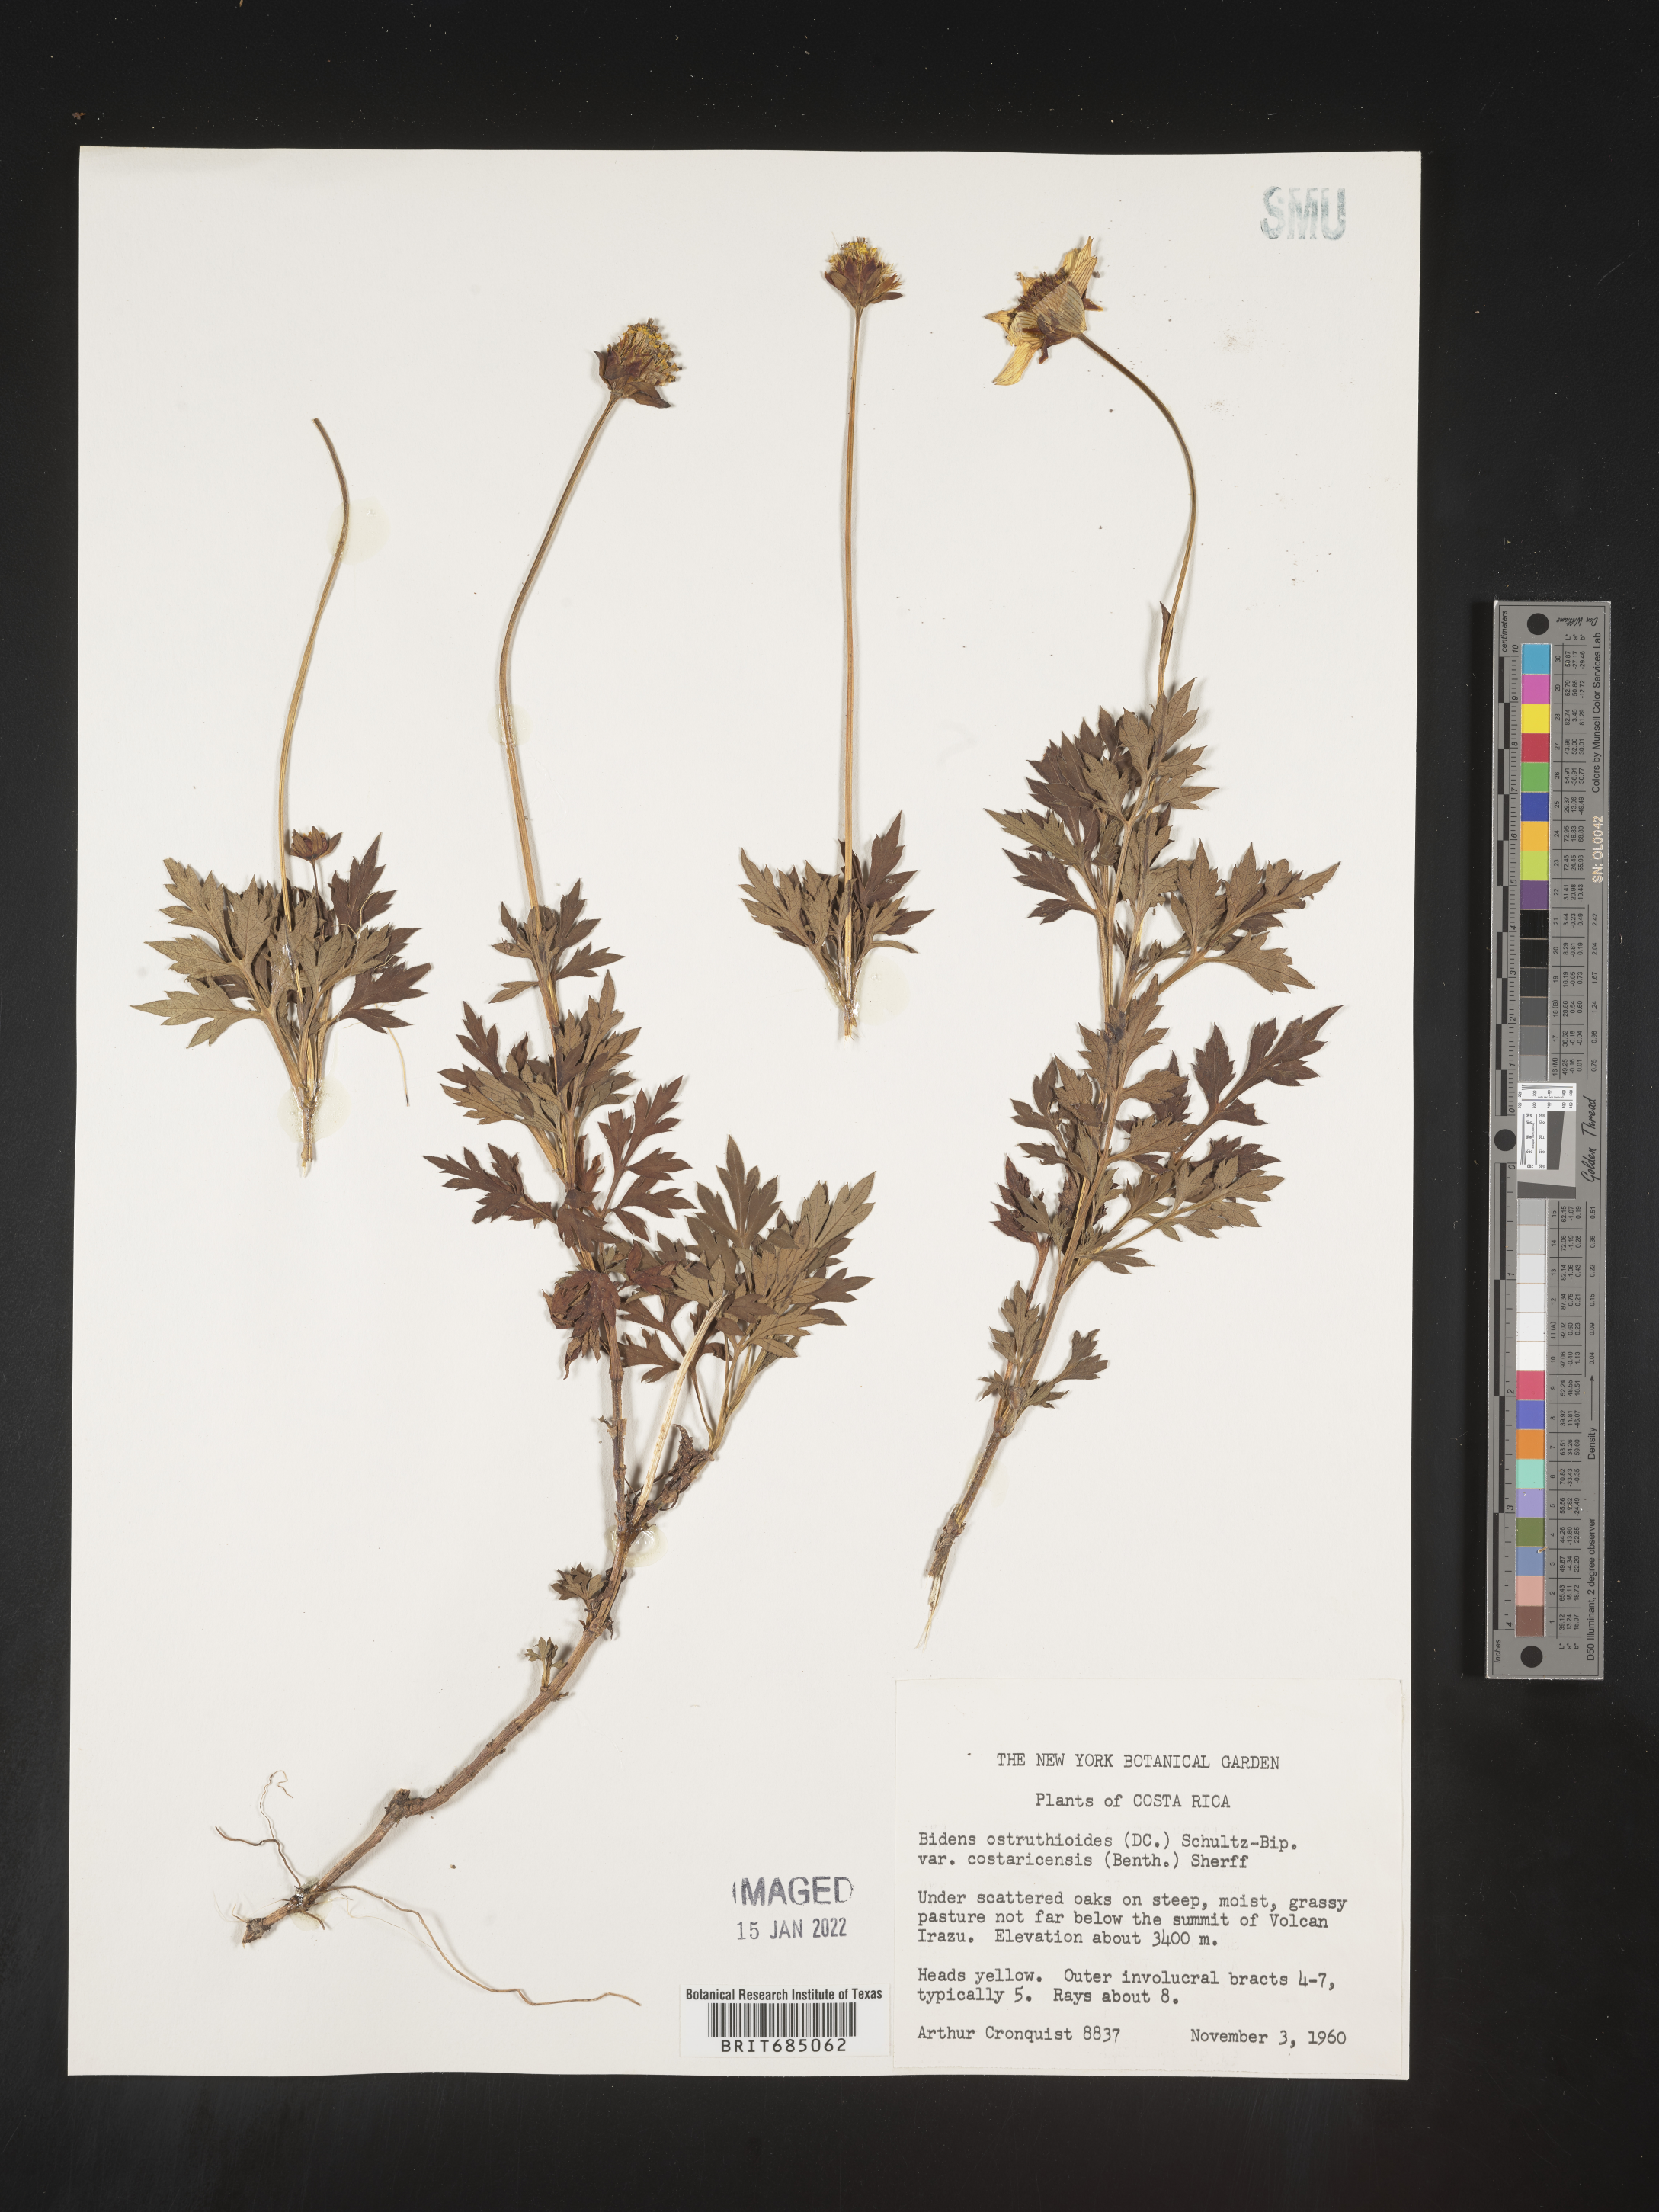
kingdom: Plantae
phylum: Tracheophyta
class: Magnoliopsida
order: Asterales
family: Asteraceae
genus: Bidens
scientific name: Bidens
